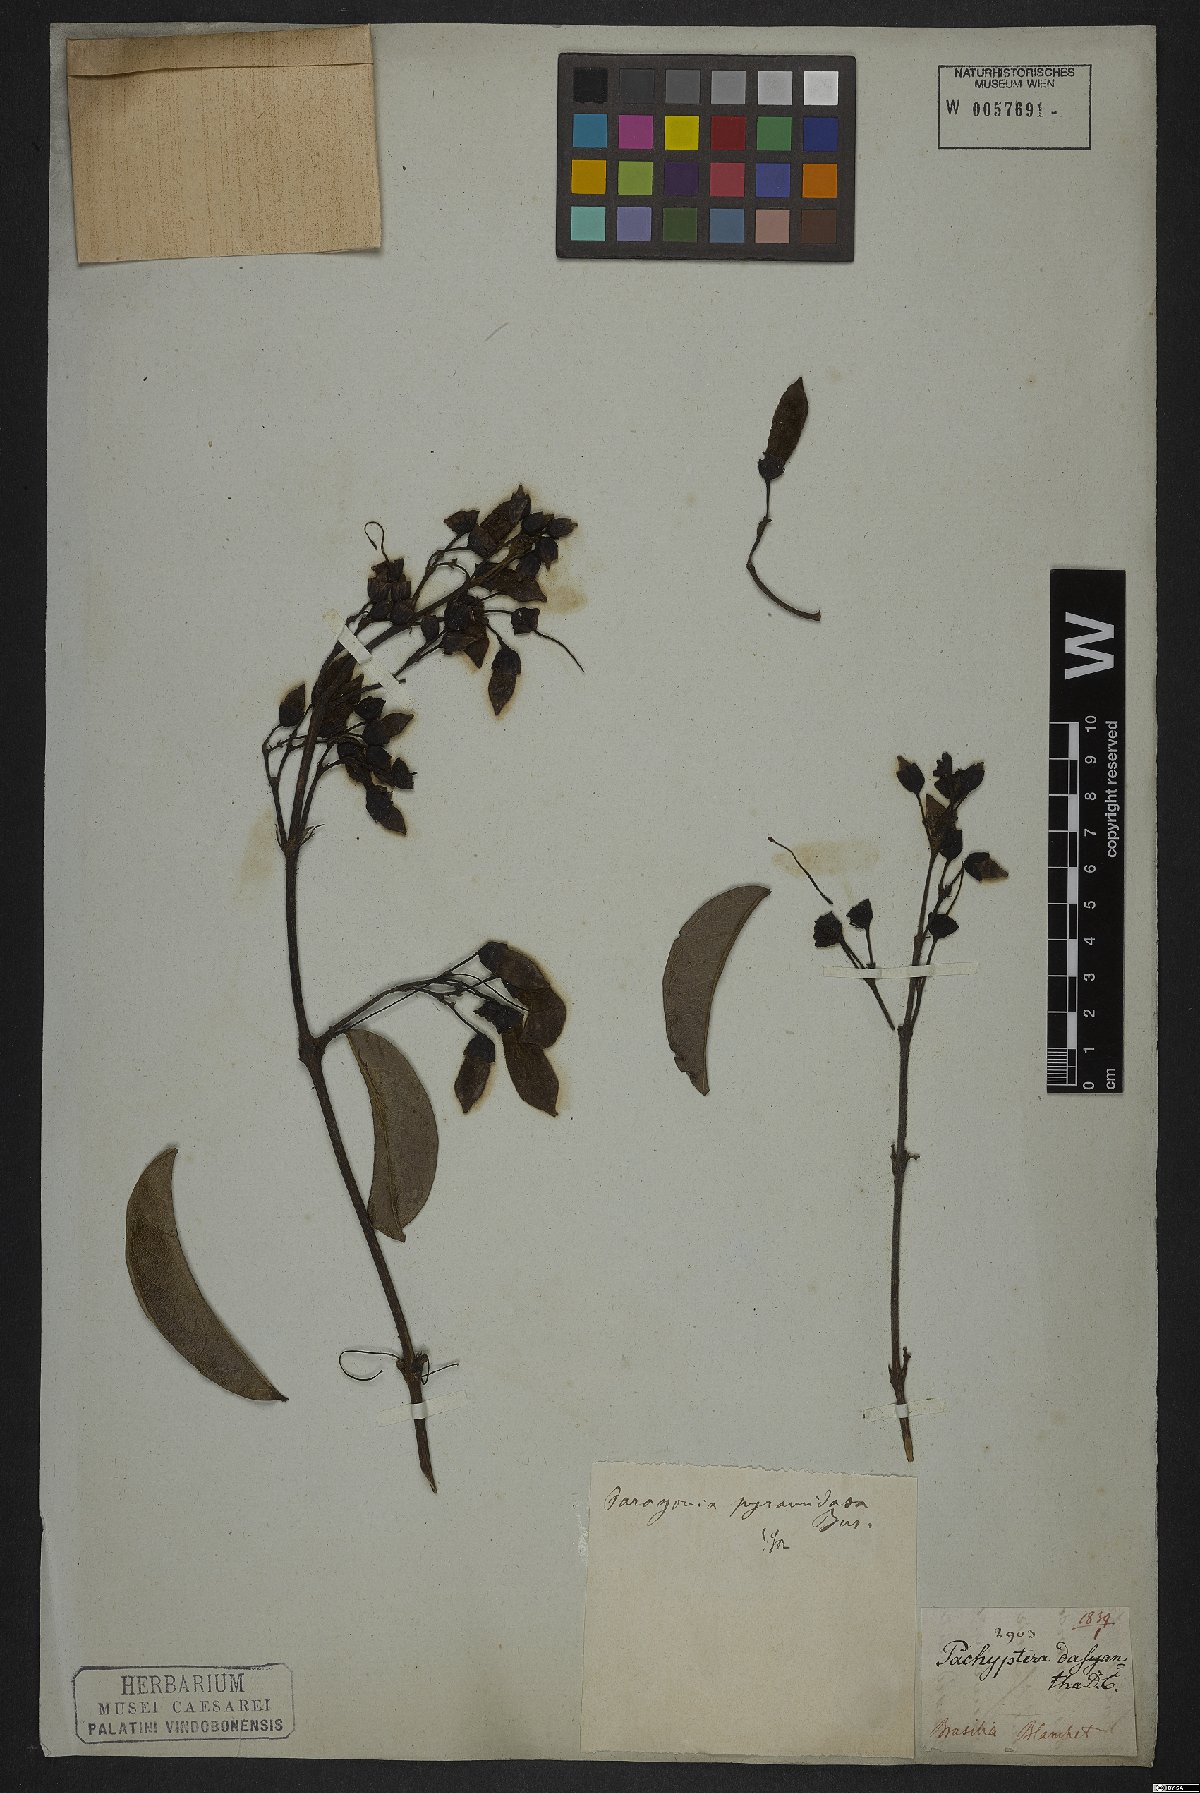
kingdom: Plantae
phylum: Tracheophyta
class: Magnoliopsida
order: Lamiales
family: Bignoniaceae
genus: Tanaecium
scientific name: Tanaecium pyramidatum
